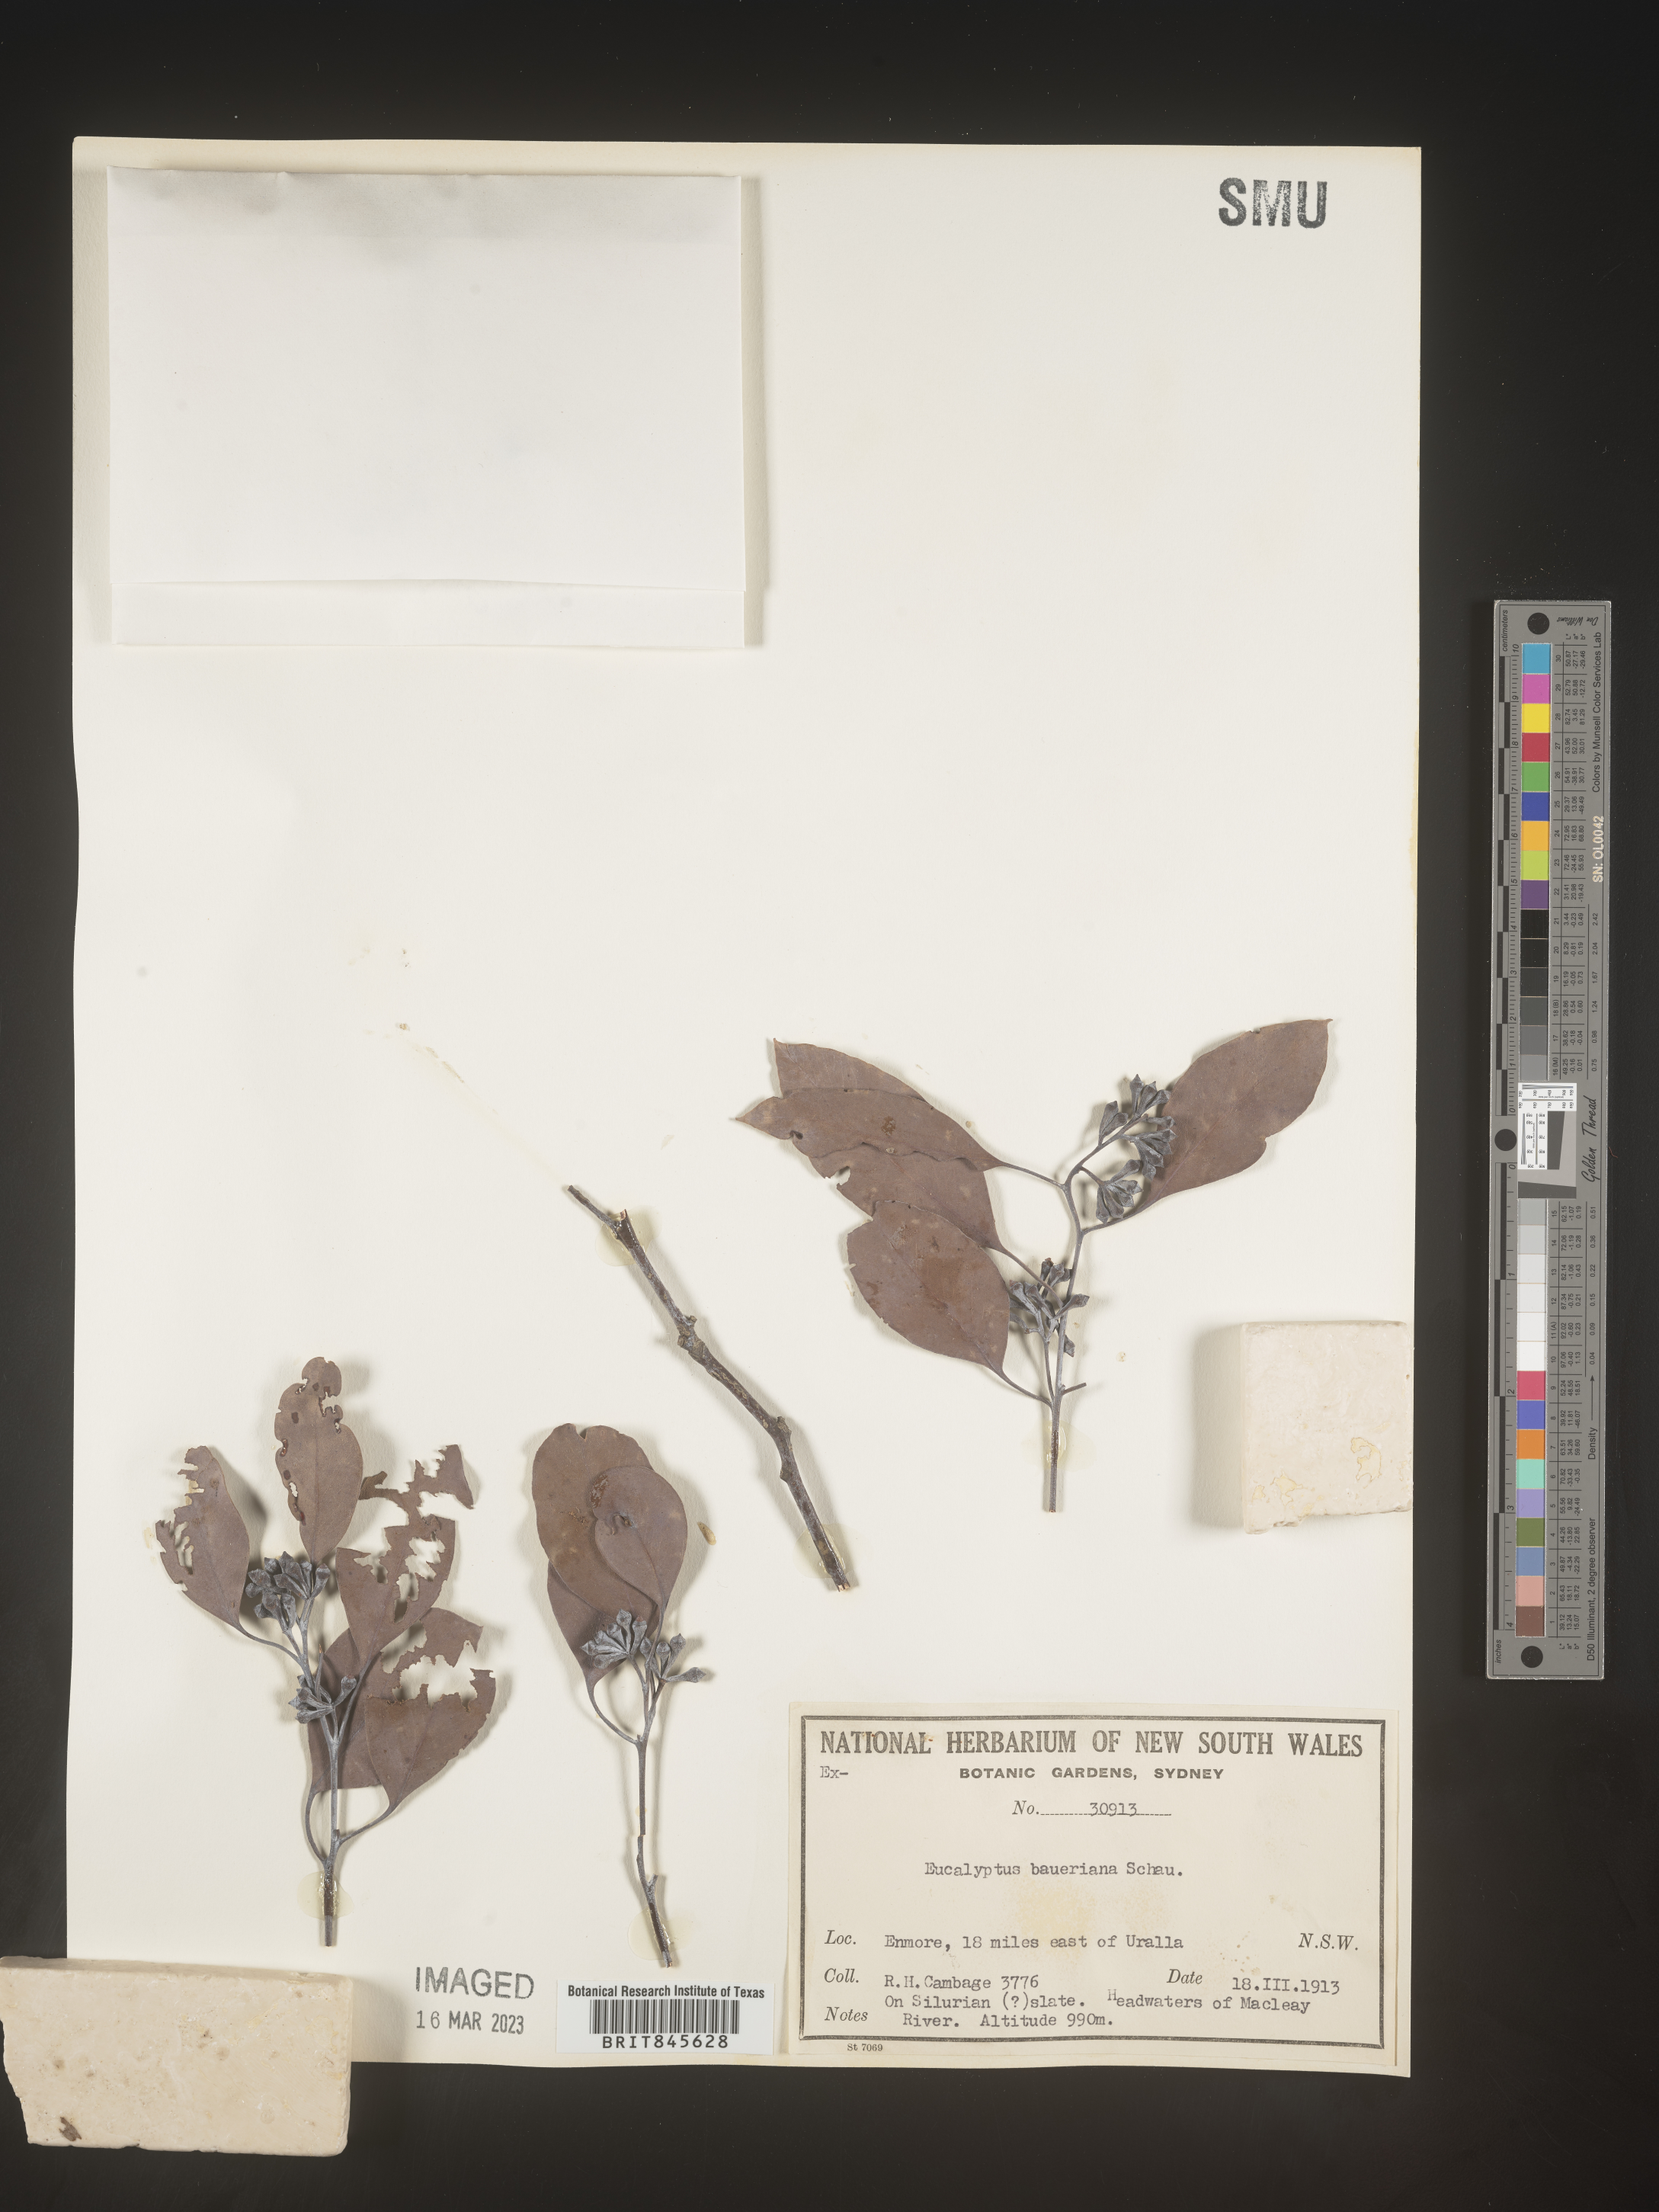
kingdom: Plantae
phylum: Tracheophyta
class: Magnoliopsida
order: Myrtales
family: Myrtaceae
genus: Eucalyptus
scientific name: Eucalyptus
